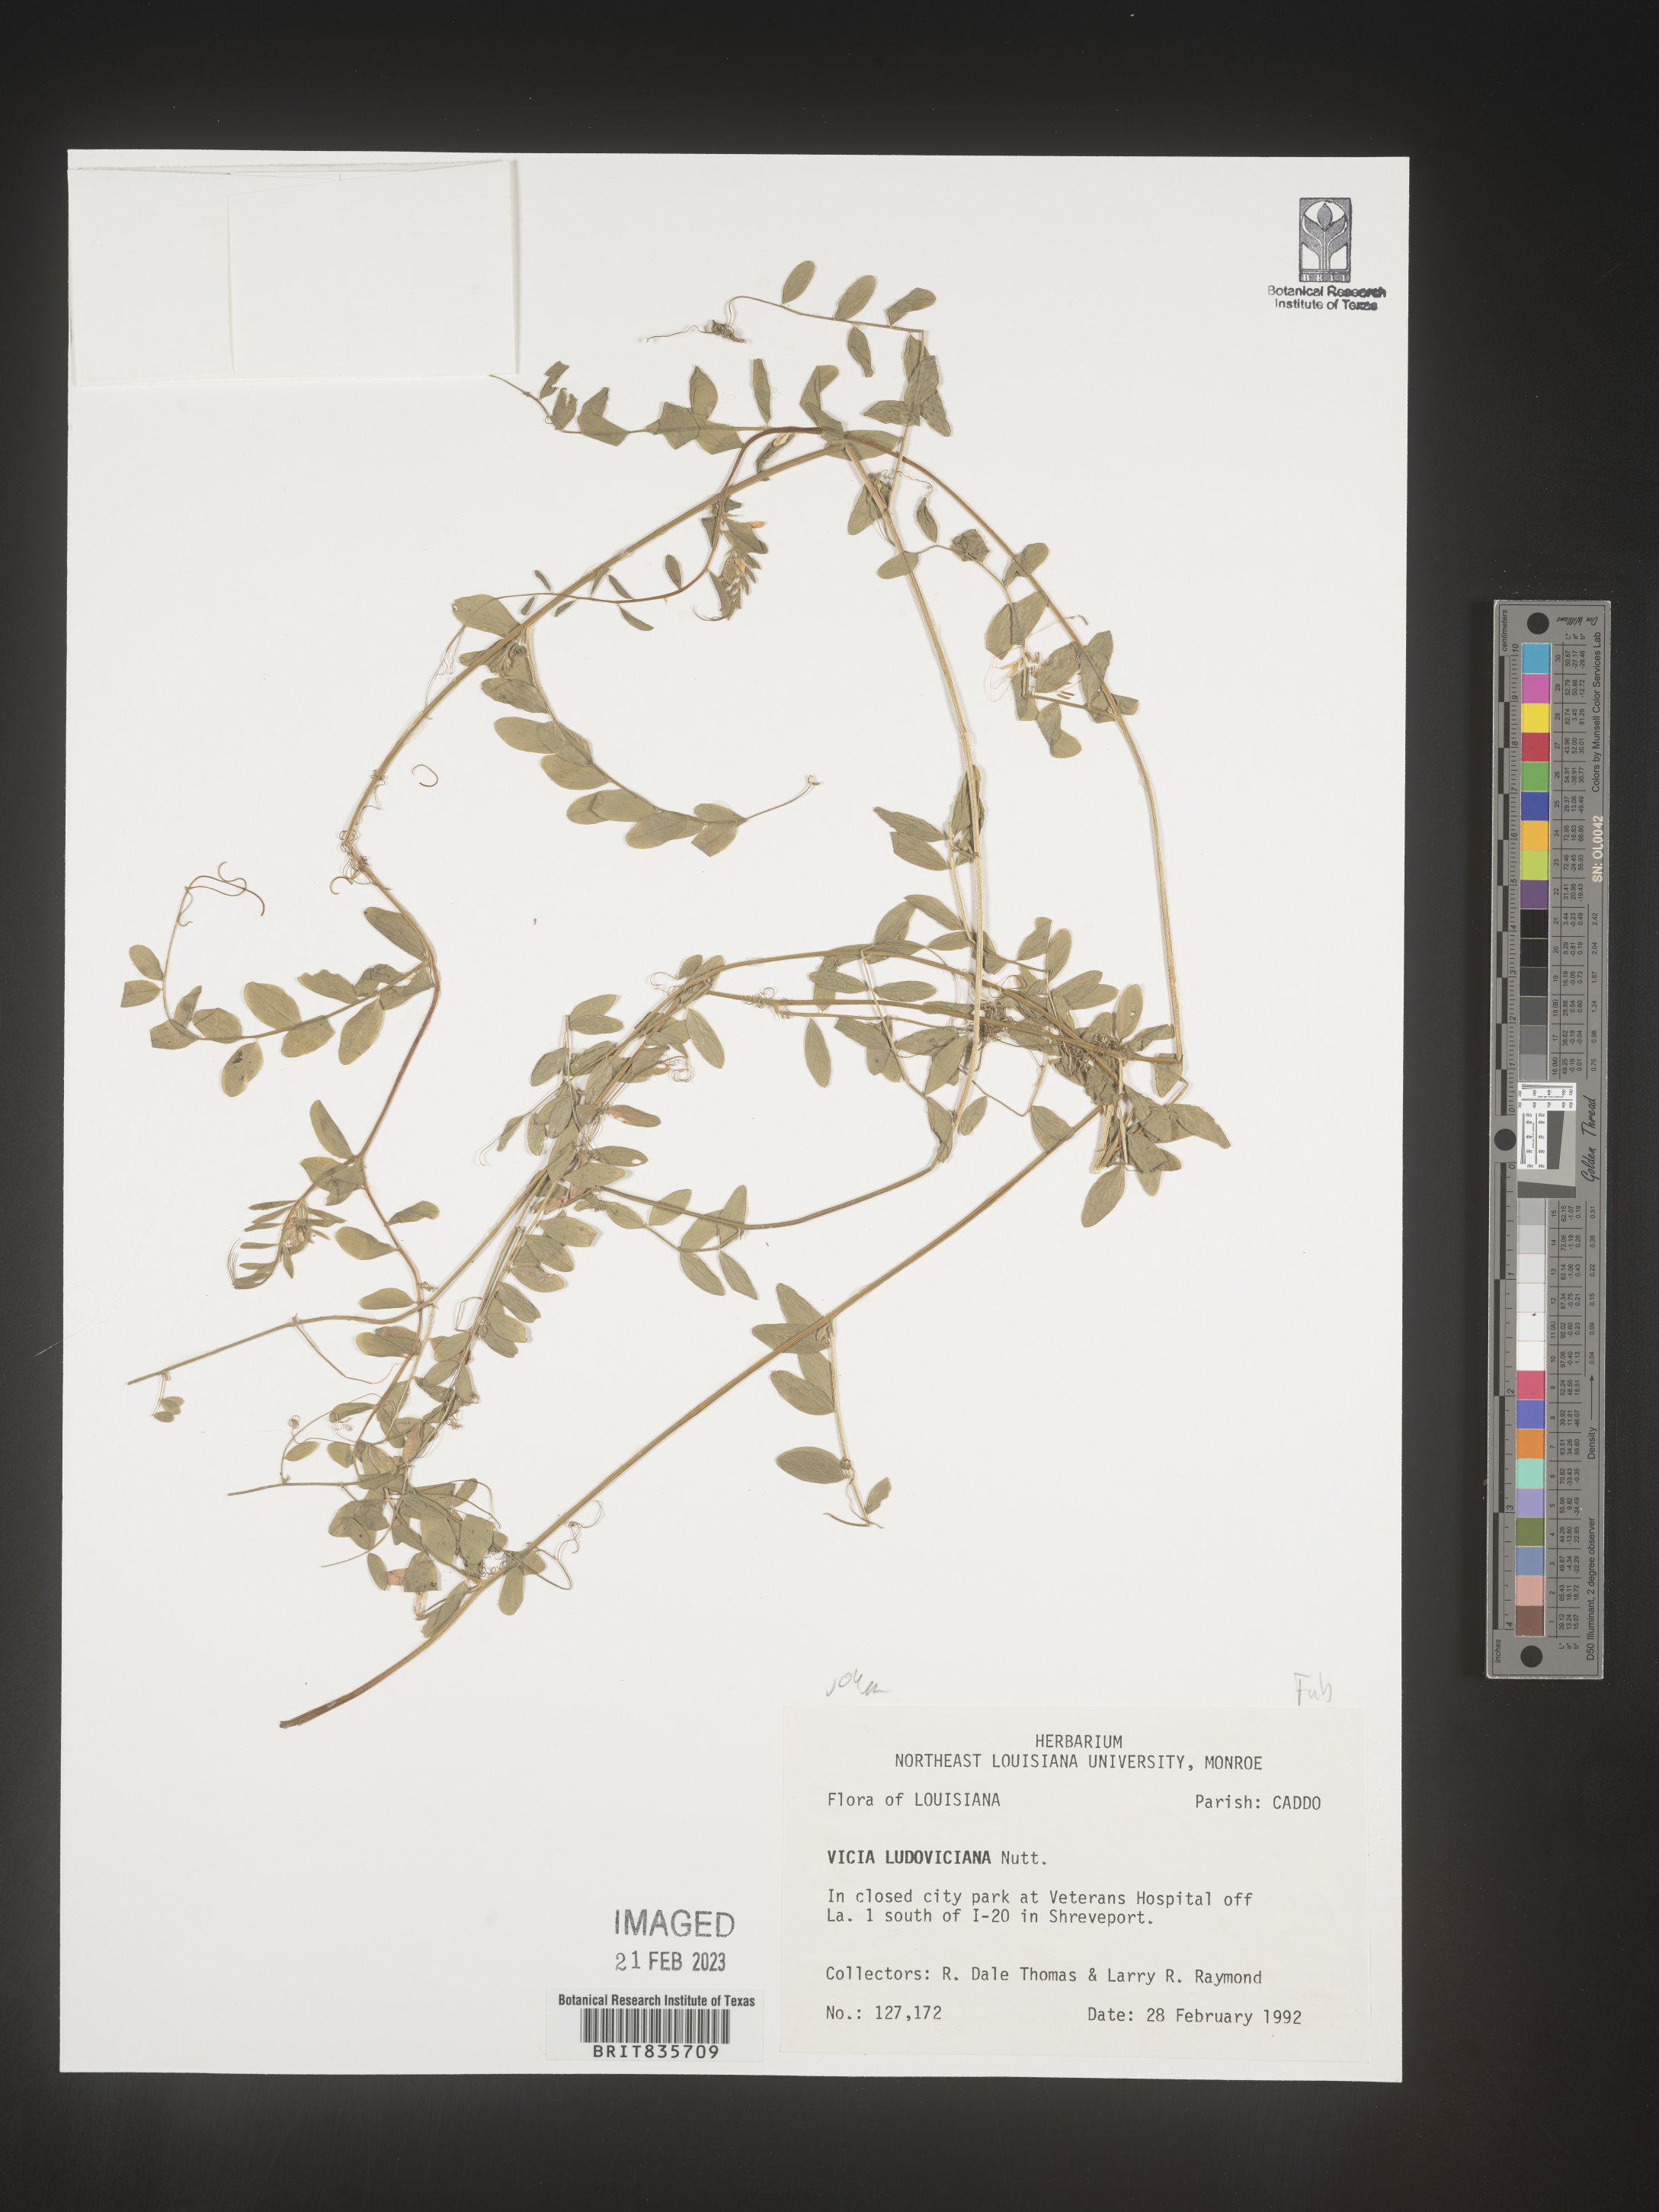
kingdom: Plantae
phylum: Tracheophyta
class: Magnoliopsida
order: Fabales
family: Fabaceae
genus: Vicia
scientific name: Vicia ludoviciana
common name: Louisiana vetch
